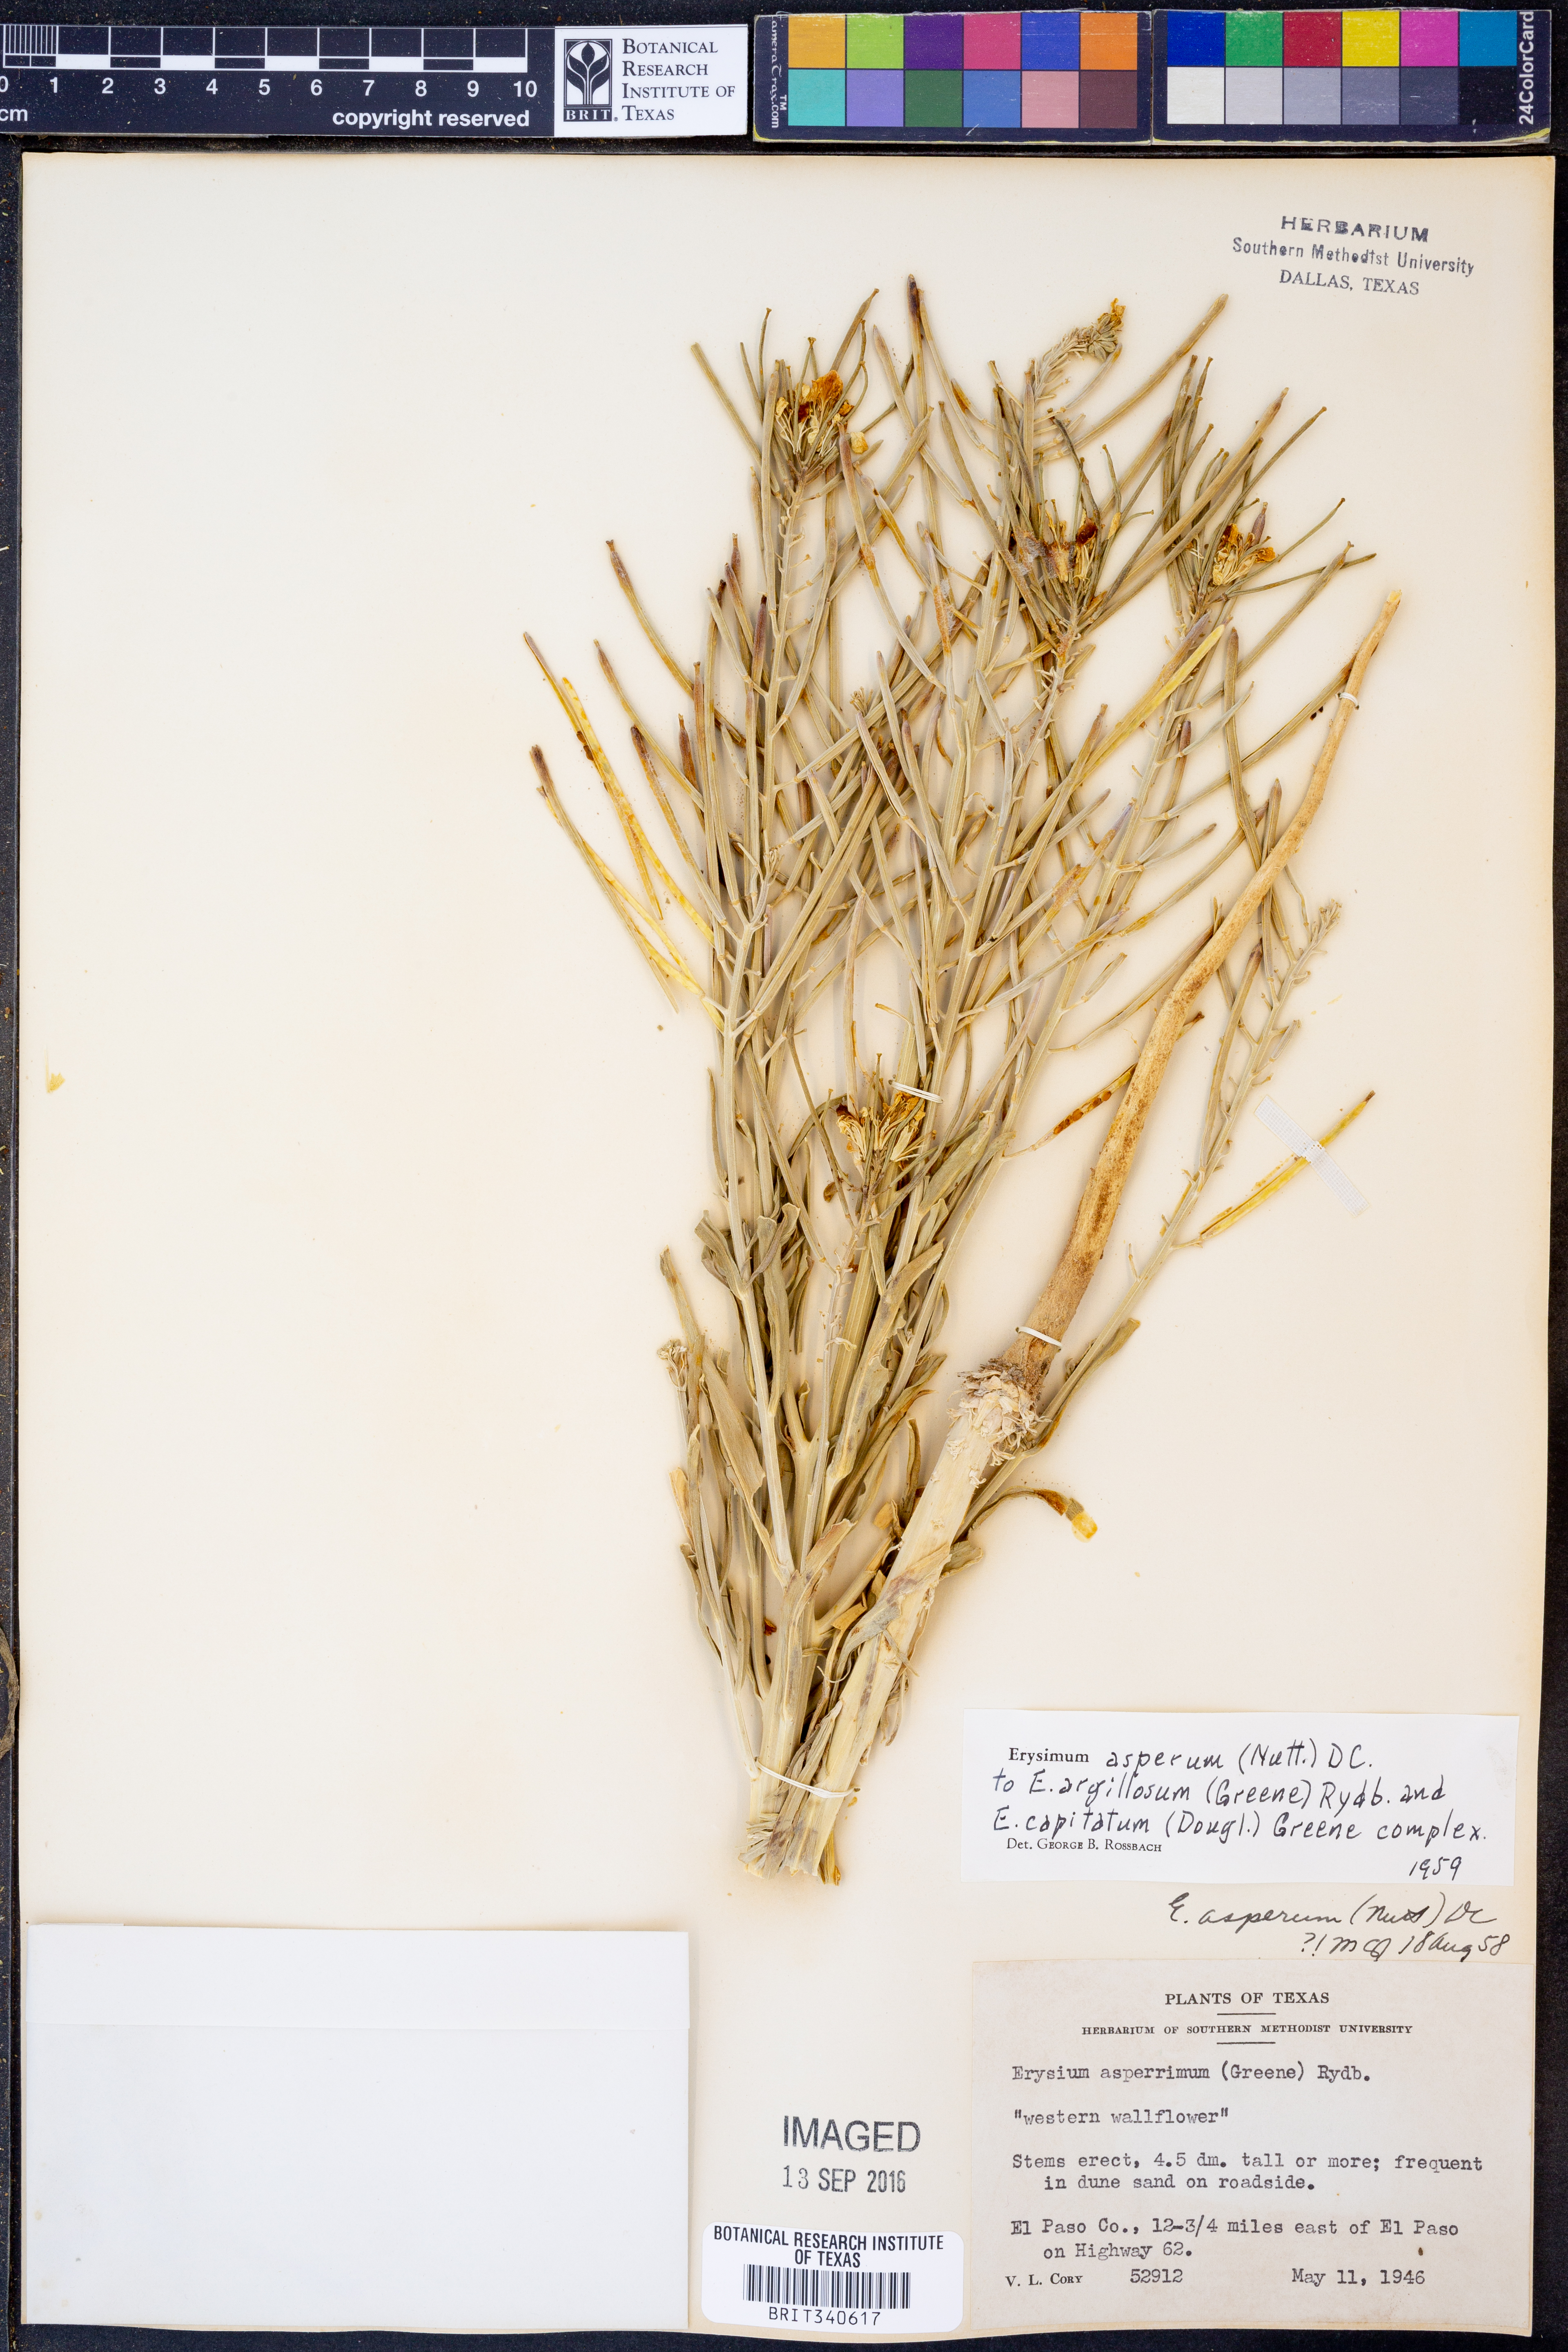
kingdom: Plantae
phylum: Tracheophyta
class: Magnoliopsida
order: Brassicales
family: Brassicaceae
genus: Erysimum
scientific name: Erysimum asperum
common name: Western wallflower
